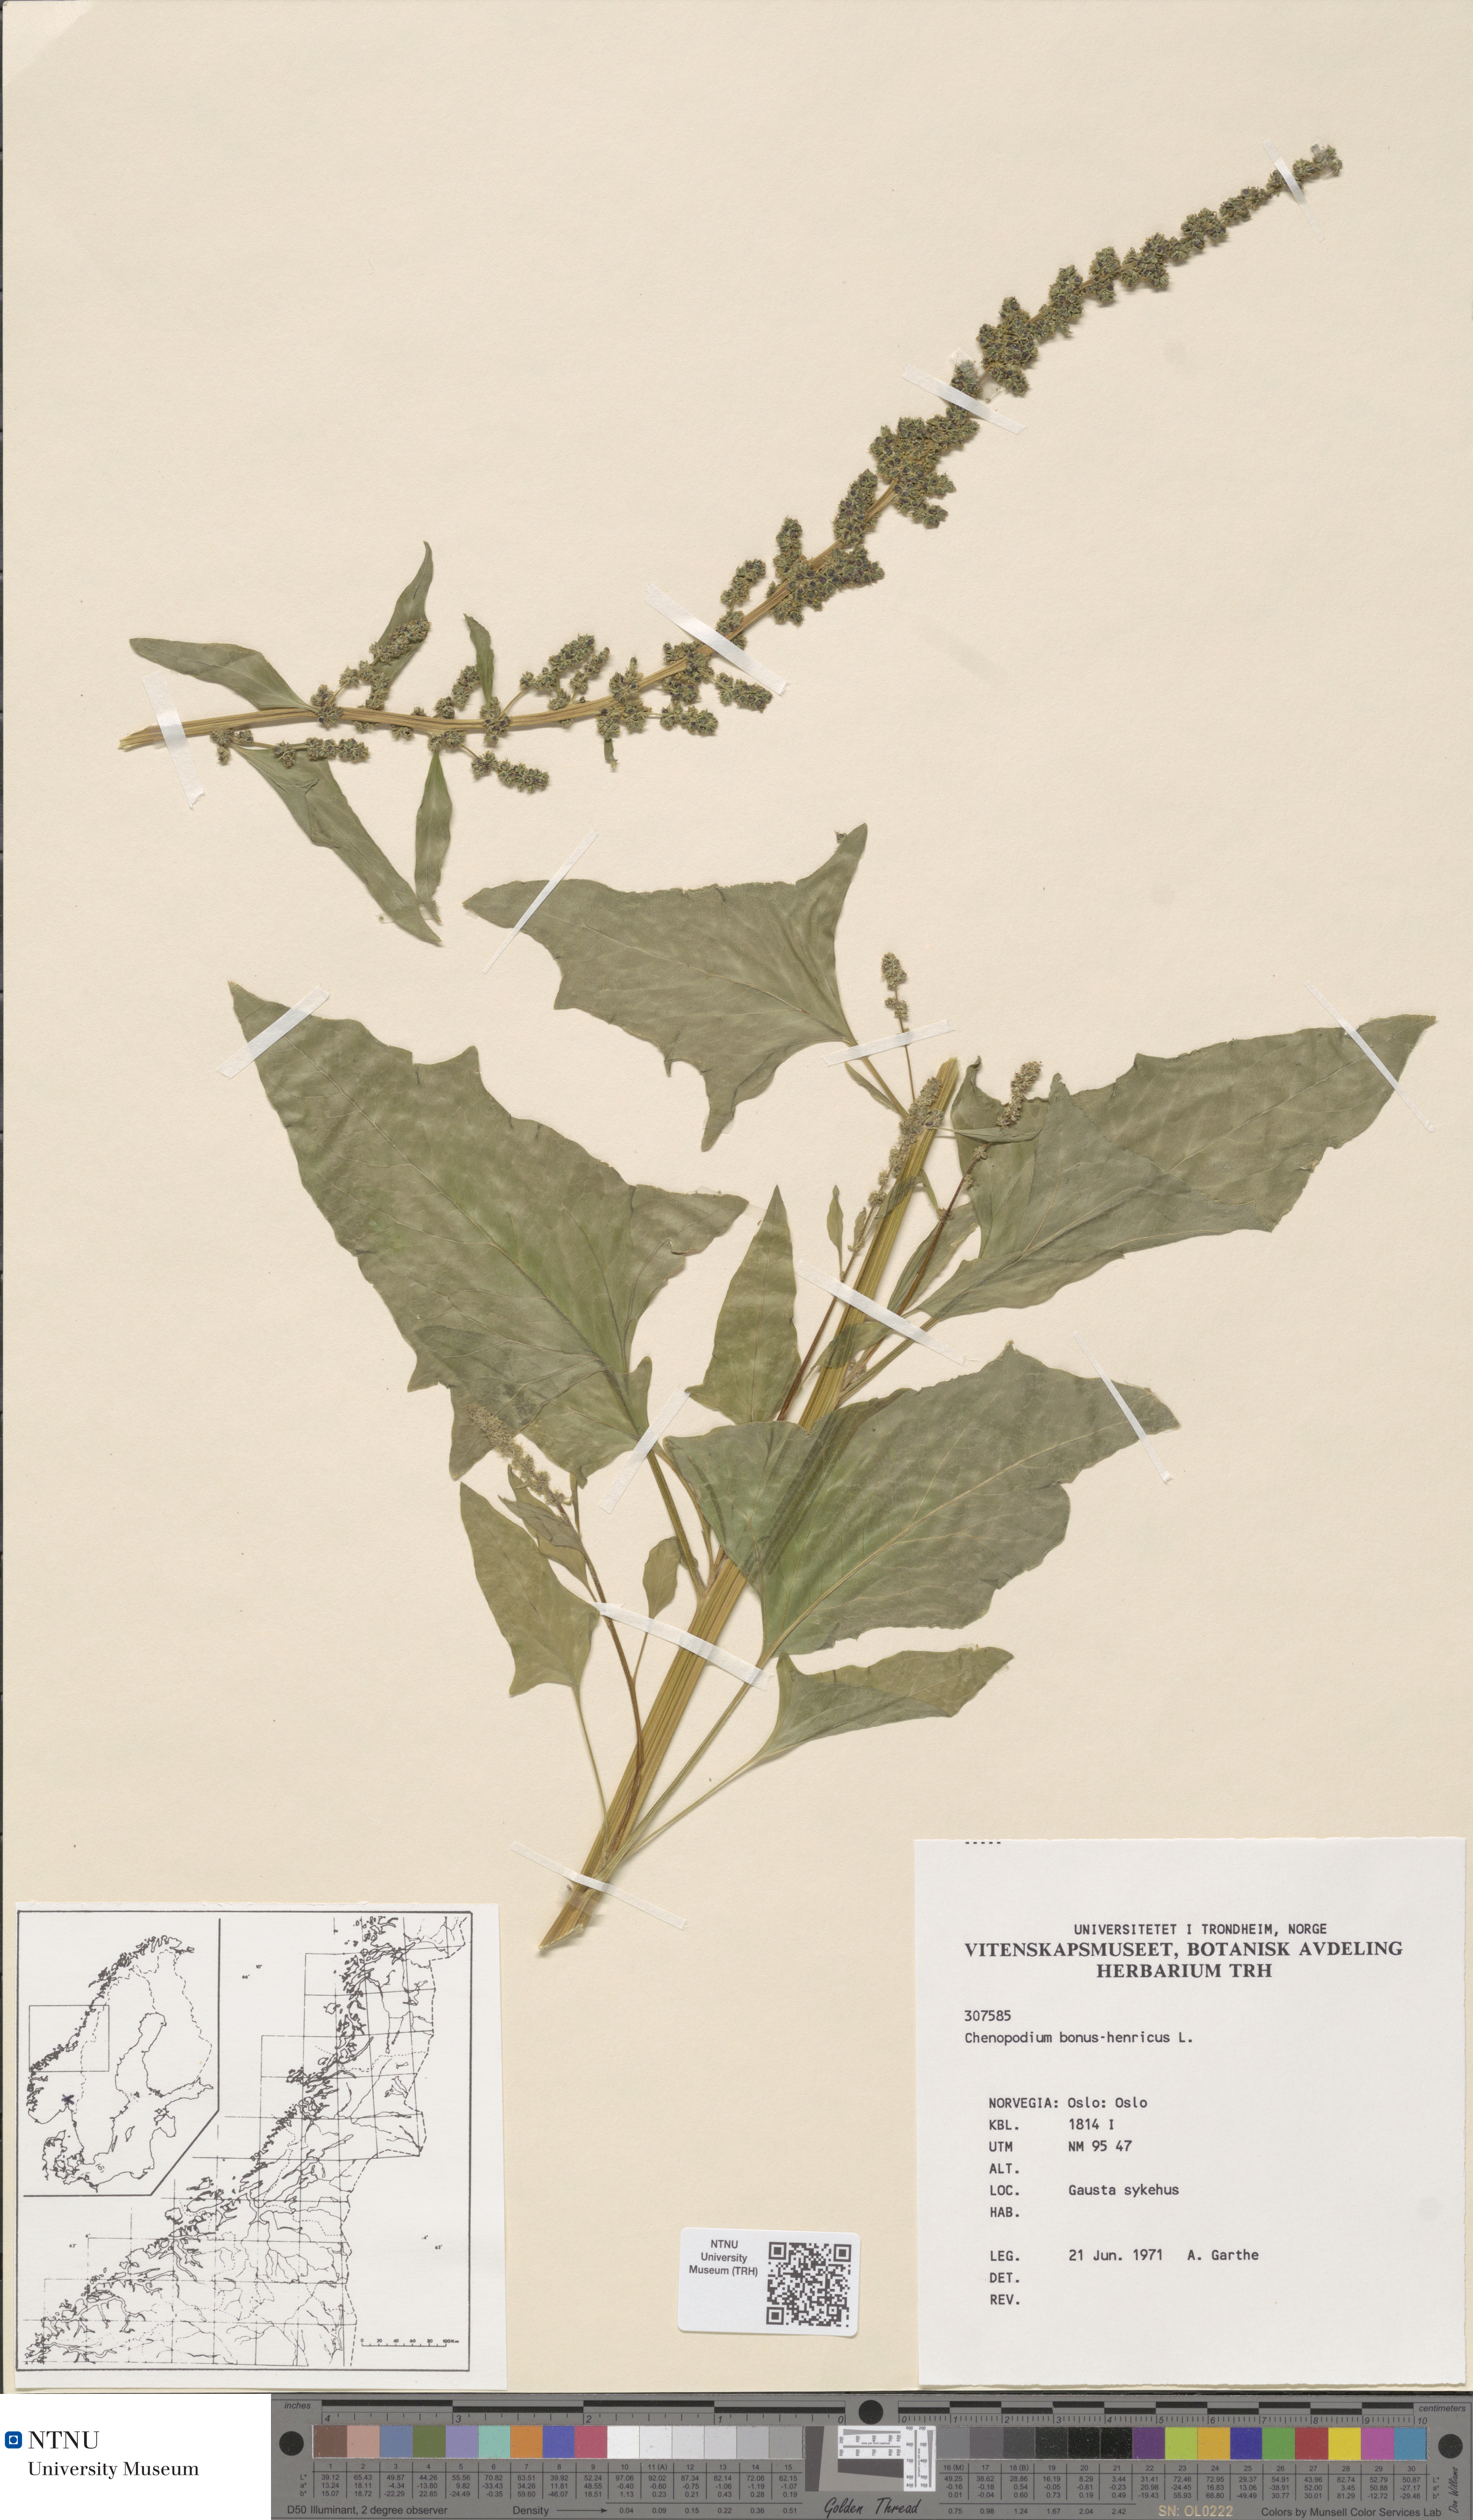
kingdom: Plantae
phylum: Tracheophyta
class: Magnoliopsida
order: Caryophyllales
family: Amaranthaceae
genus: Blitum
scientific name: Blitum bonus-henricus
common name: Good king henry
